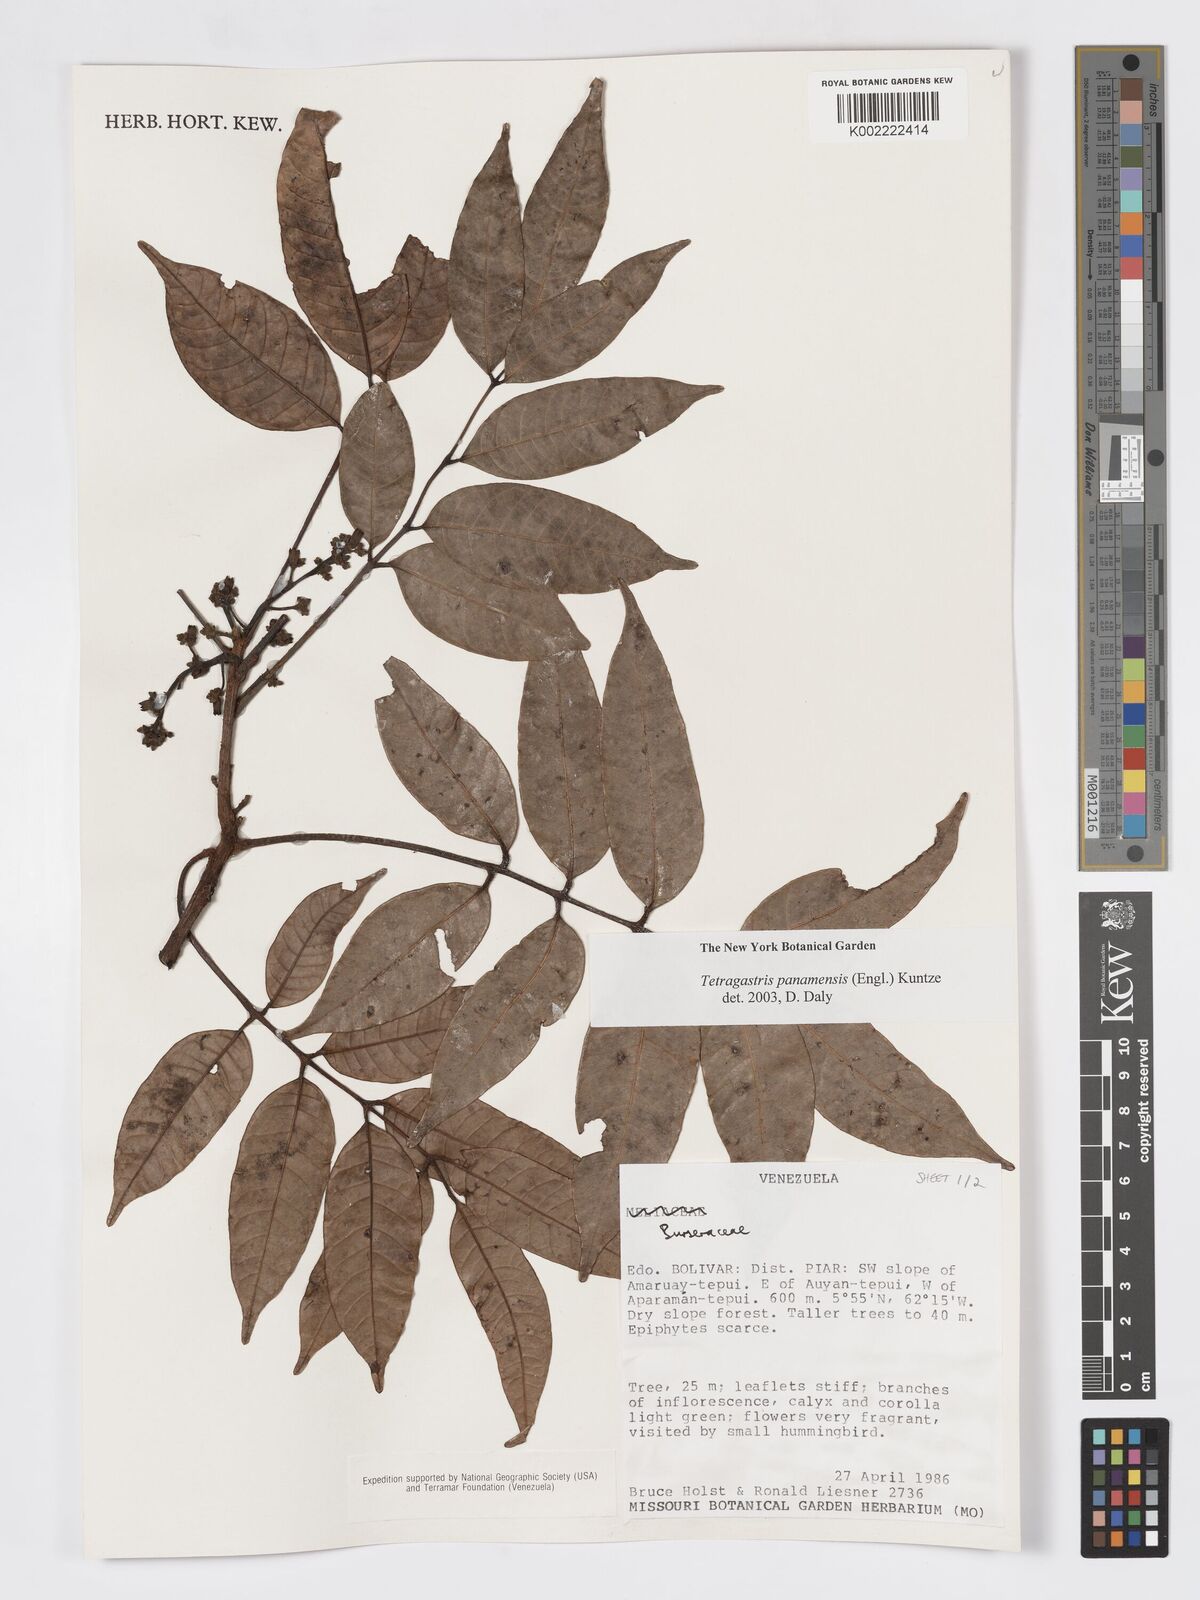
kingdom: Plantae
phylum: Tracheophyta
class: Magnoliopsida
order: Sapindales
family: Burseraceae
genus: Tetragastris
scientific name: Tetragastris panamensis
